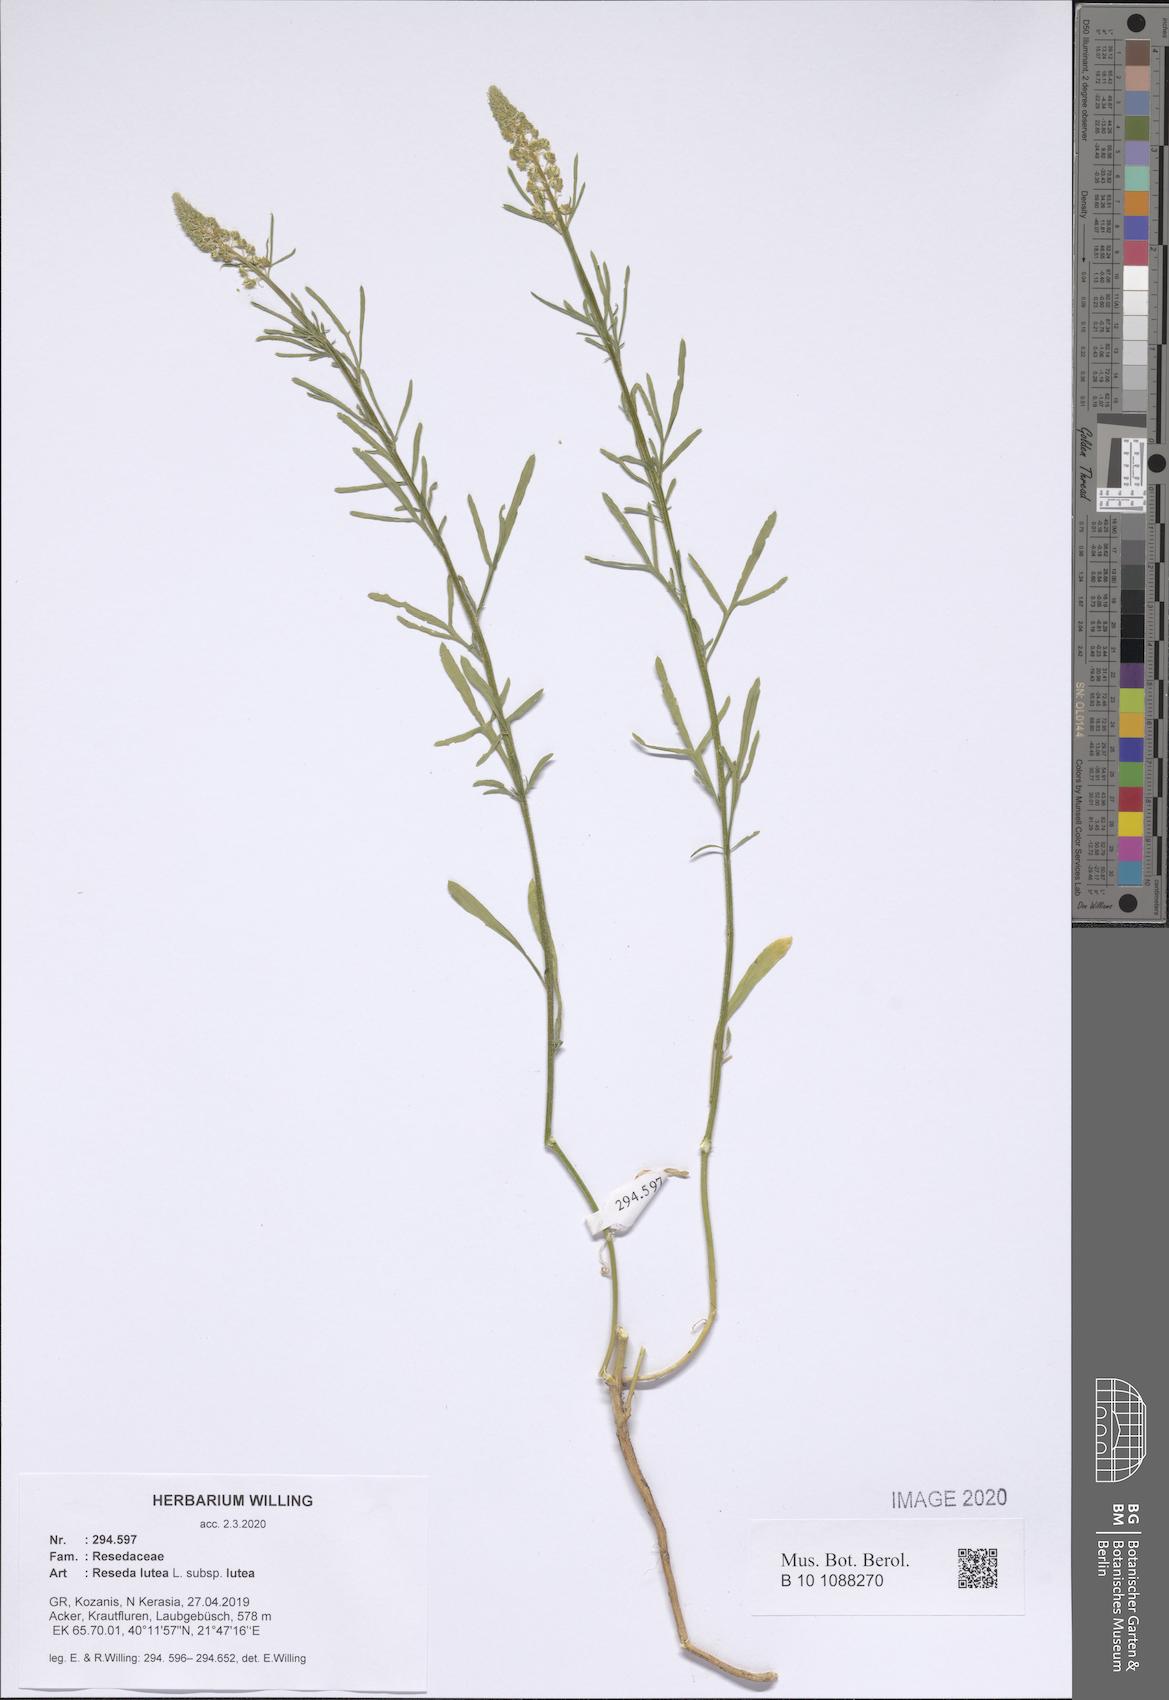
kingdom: Plantae
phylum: Tracheophyta
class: Magnoliopsida
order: Brassicales
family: Resedaceae
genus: Reseda
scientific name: Reseda lutea
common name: Wild mignonette
